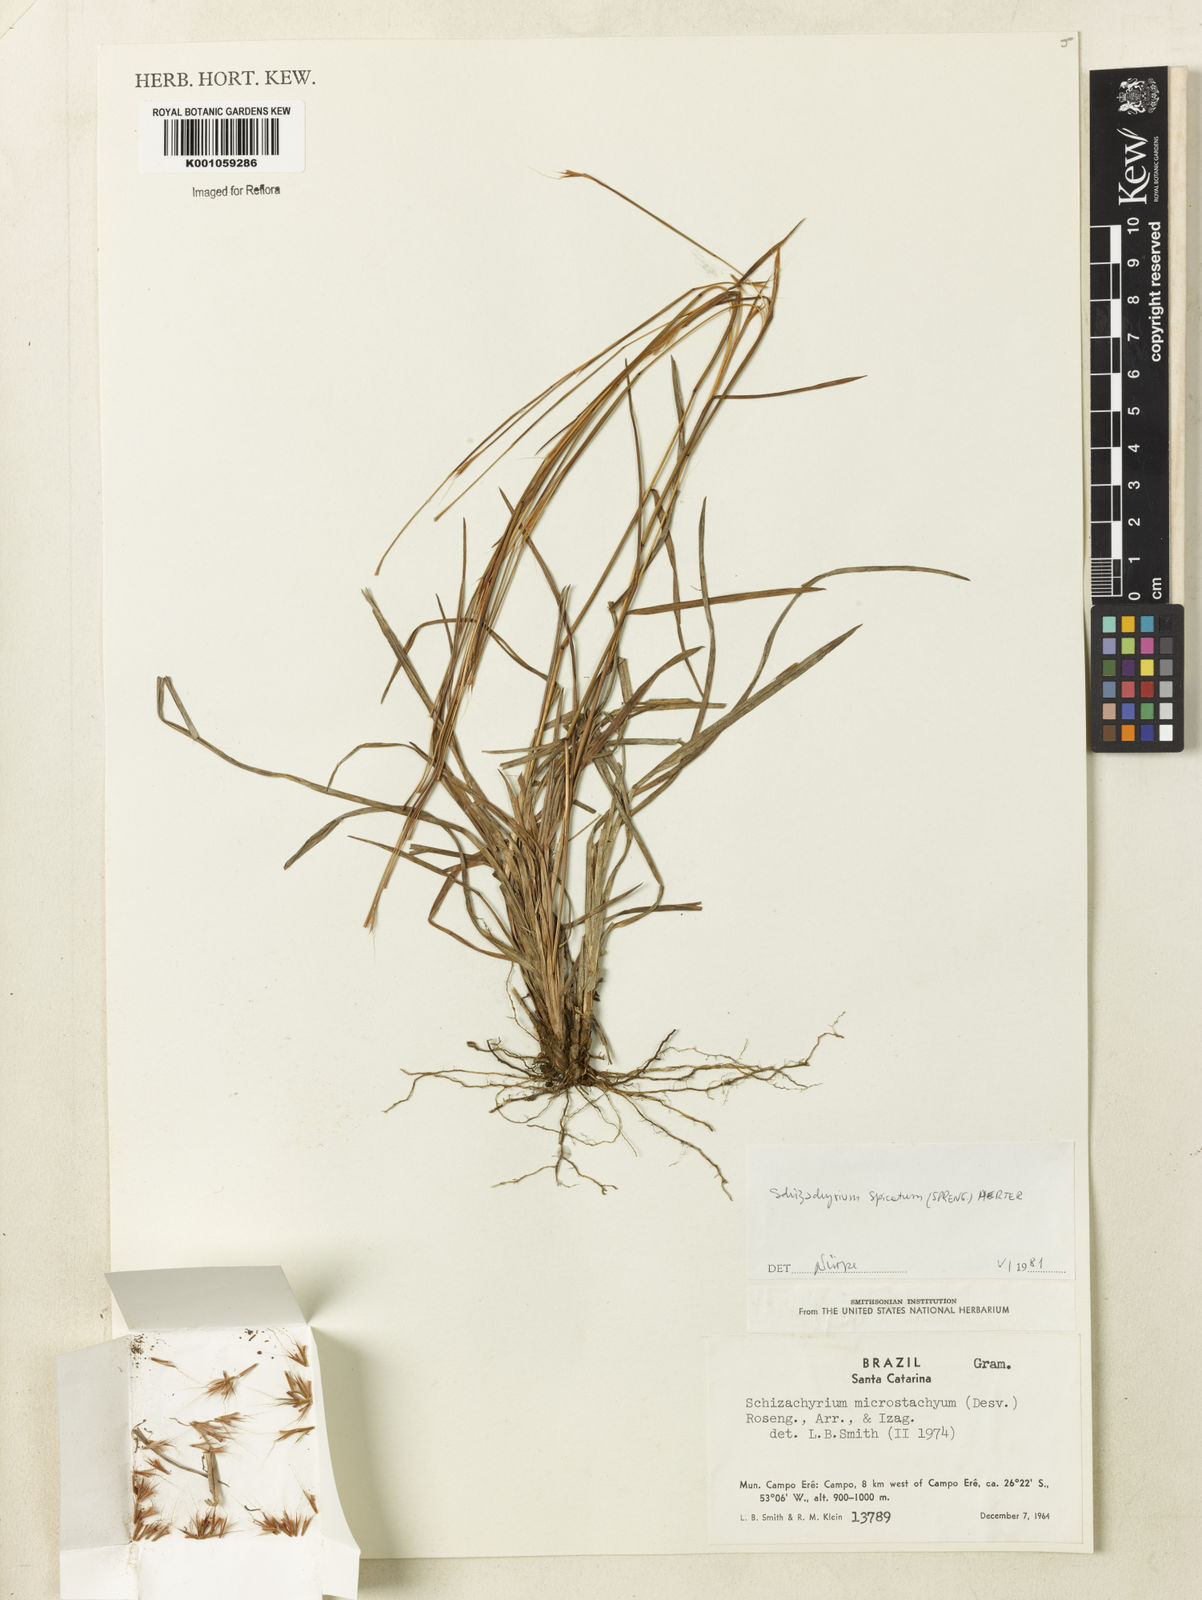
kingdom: Plantae
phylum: Tracheophyta
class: Liliopsida
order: Poales
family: Poaceae
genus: Schizachyrium
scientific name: Schizachyrium spicatum
